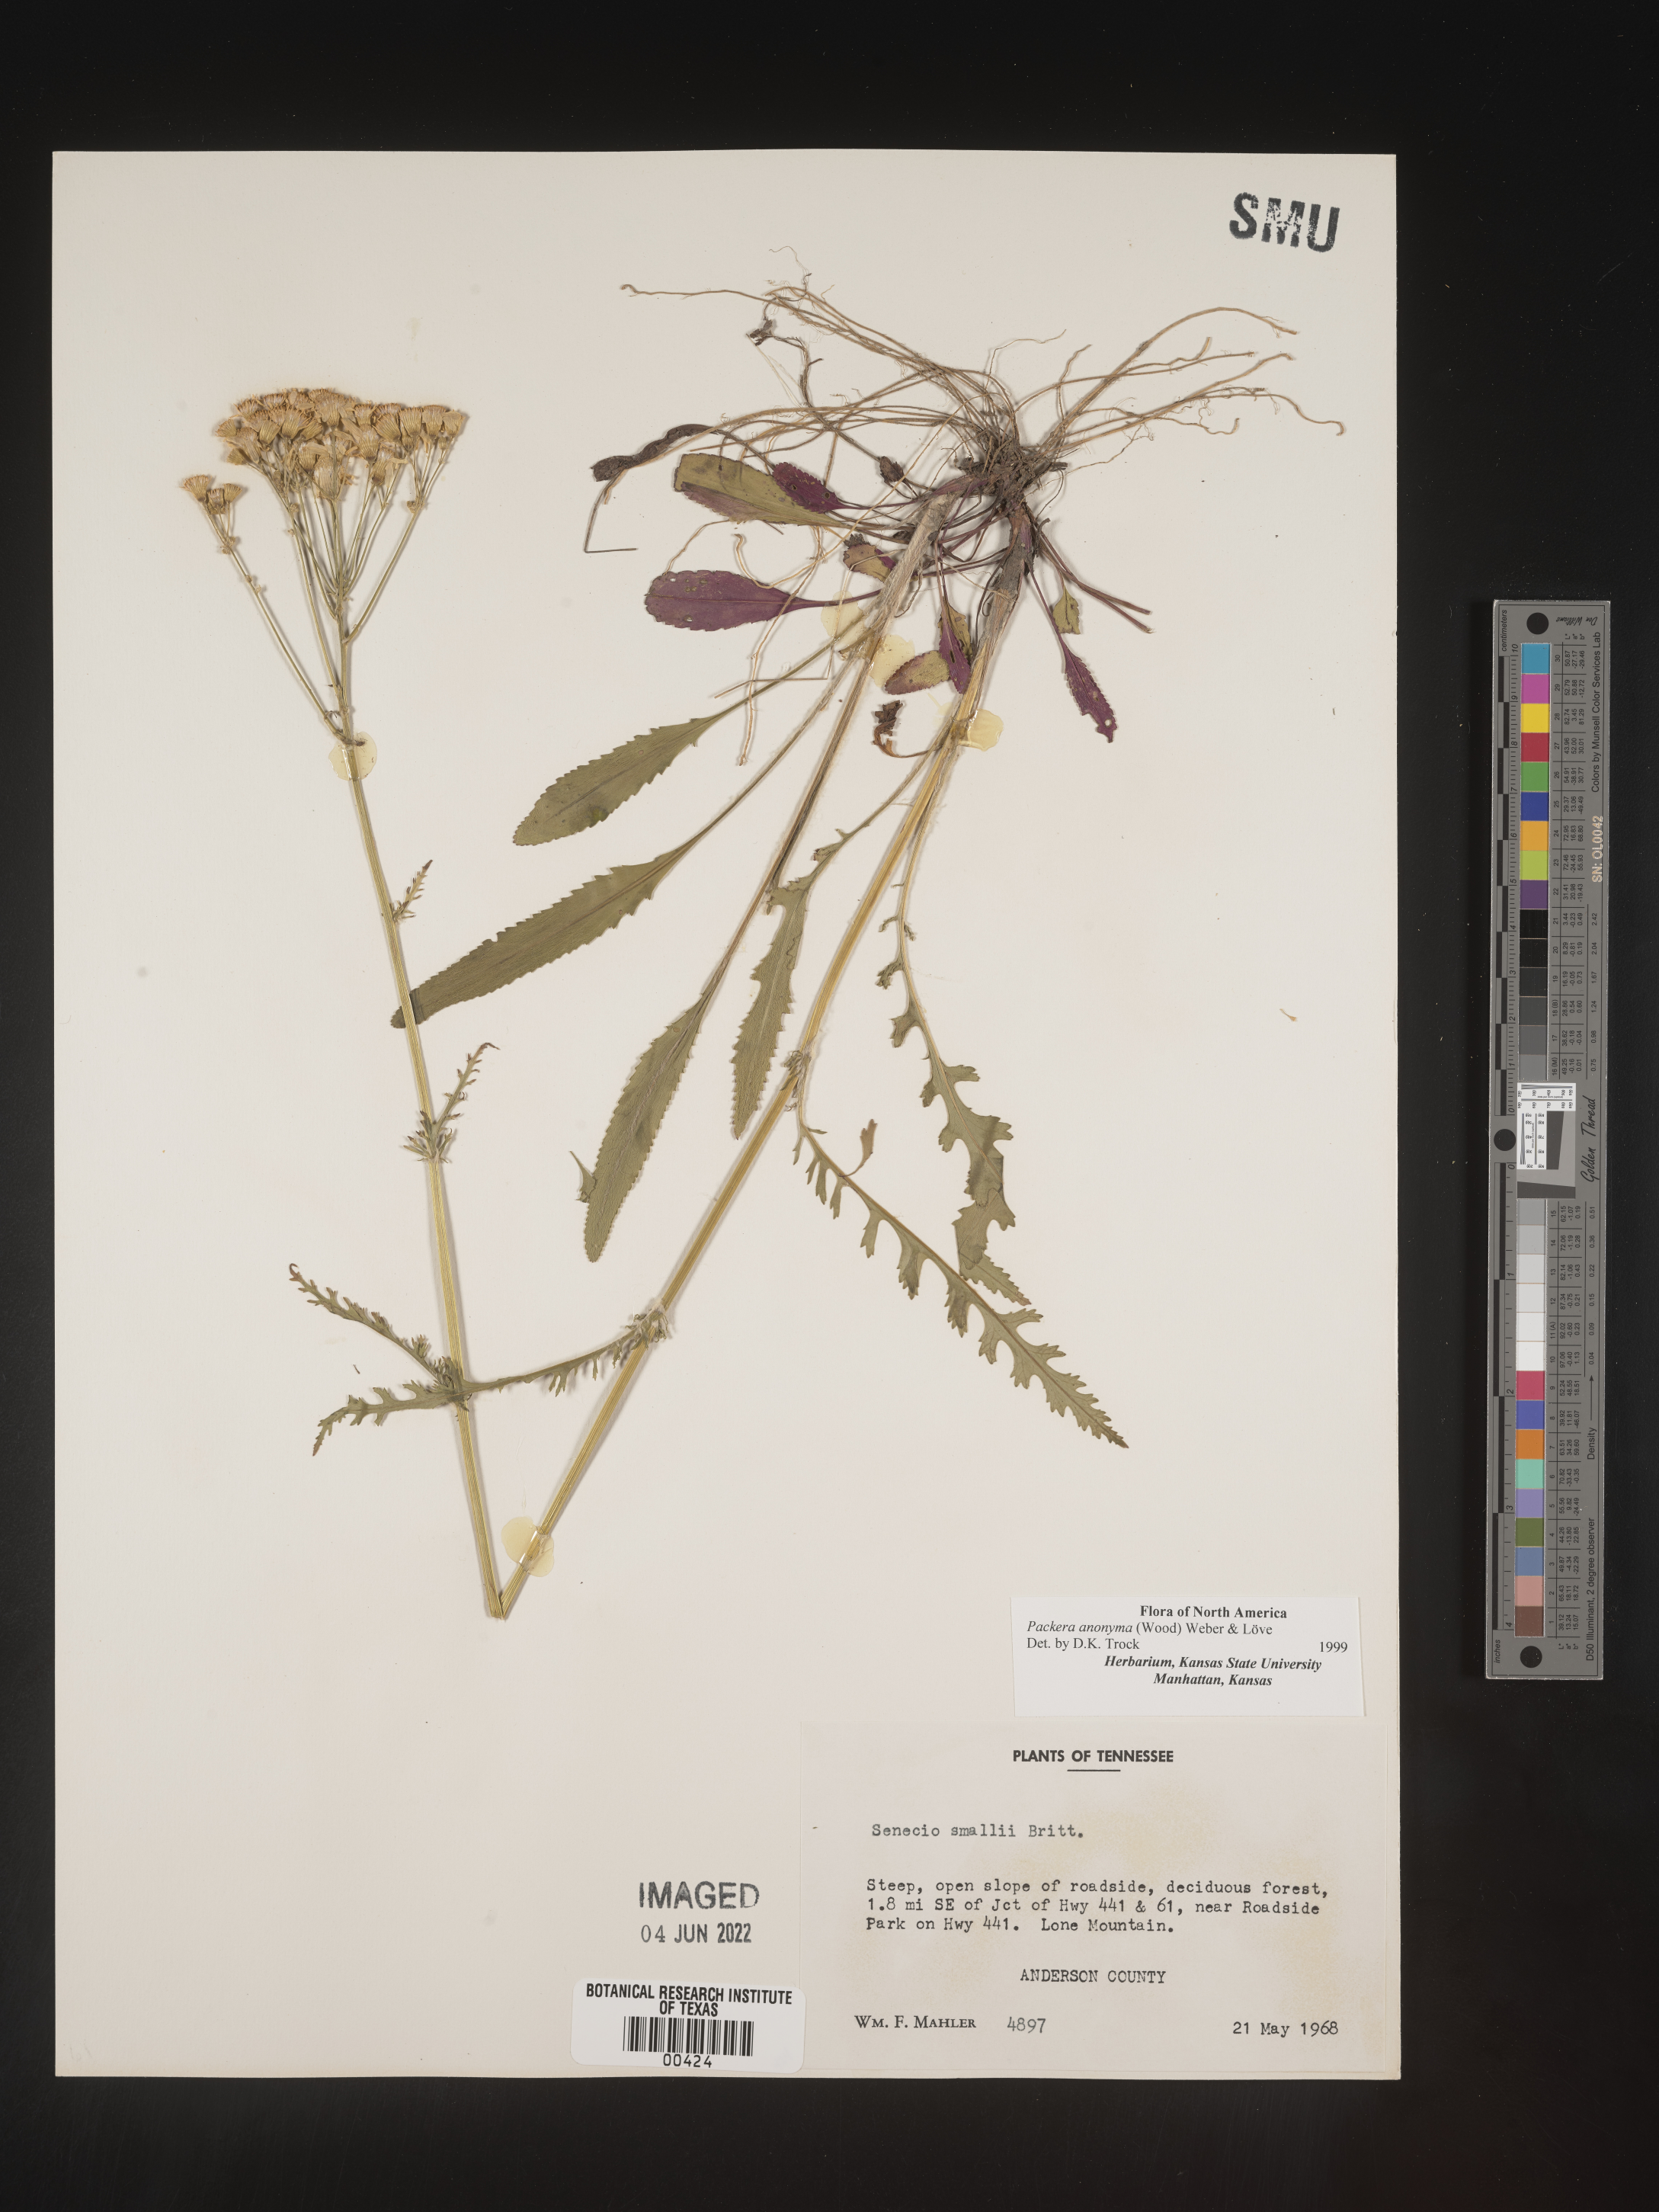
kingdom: Plantae
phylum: Tracheophyta
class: Magnoliopsida
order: Asterales
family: Asteraceae
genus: Packera
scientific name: Packera anonyma
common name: Small ragwort
